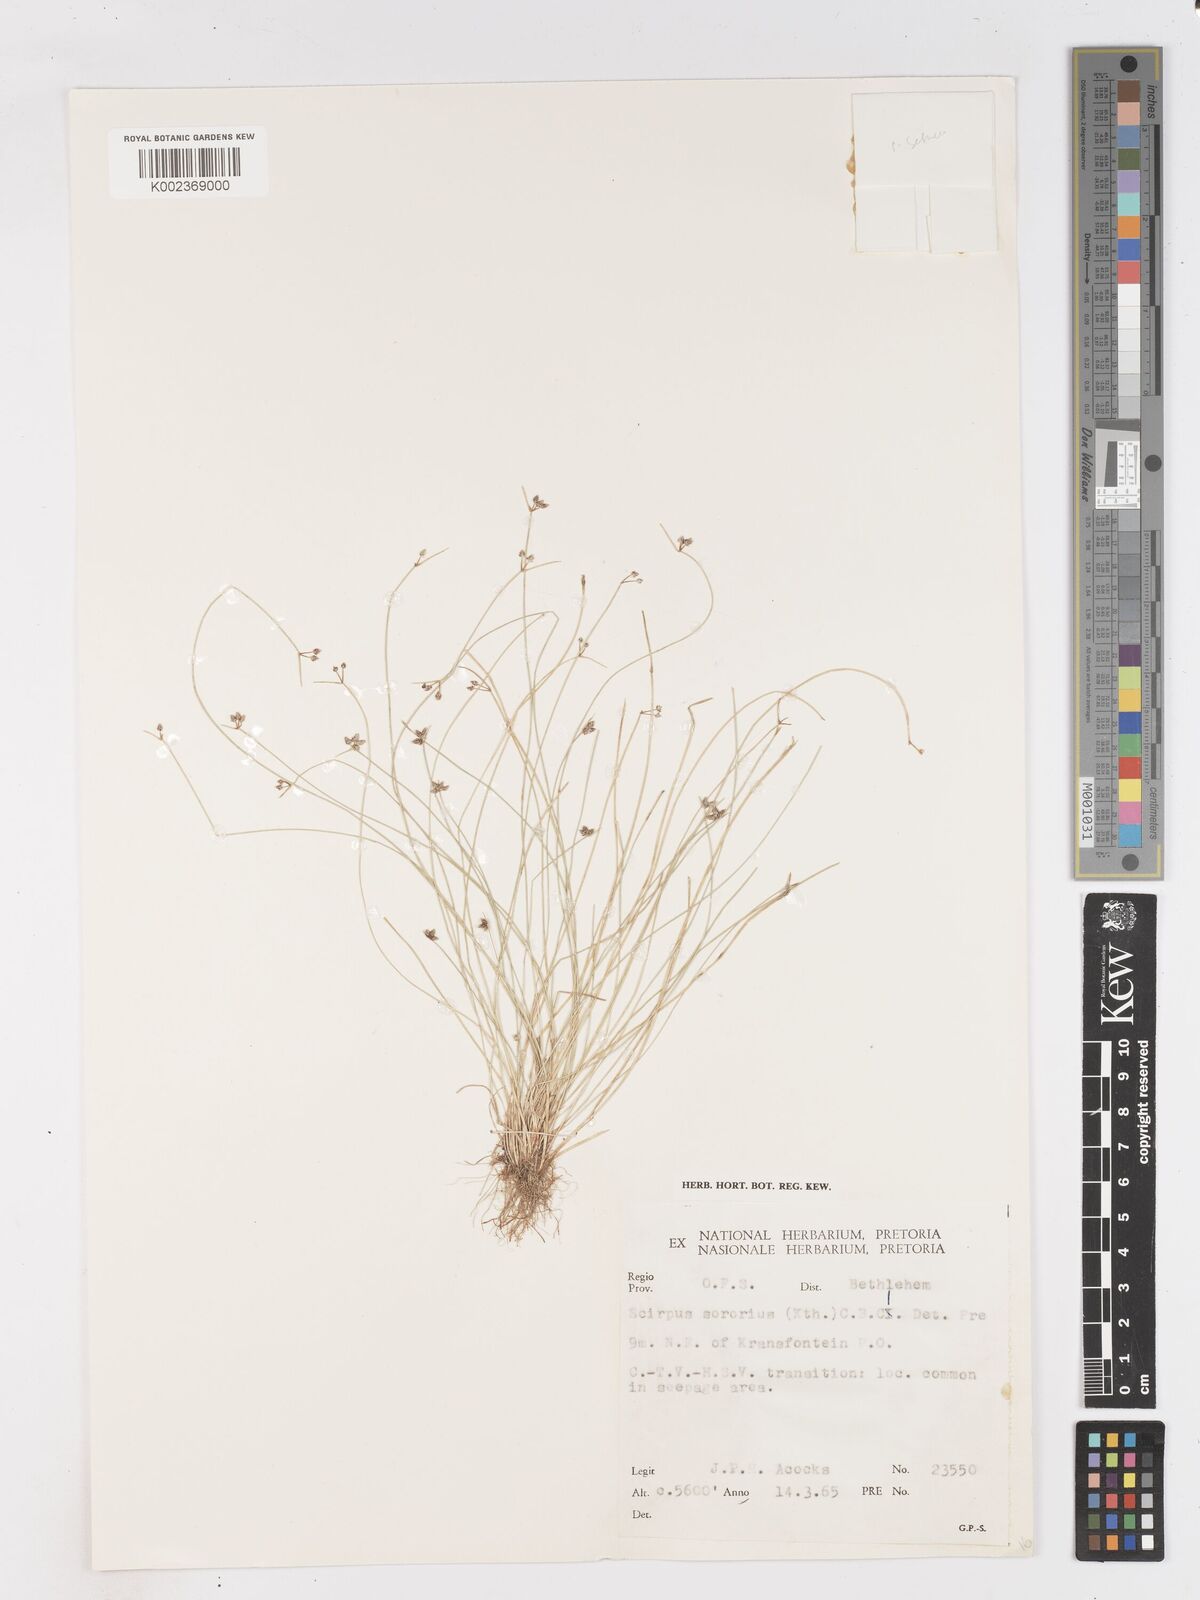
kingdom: Plantae
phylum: Tracheophyta
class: Liliopsida
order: Poales
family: Cyperaceae
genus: Isolepis
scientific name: Isolepis setacea
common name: Bristle club-rush
